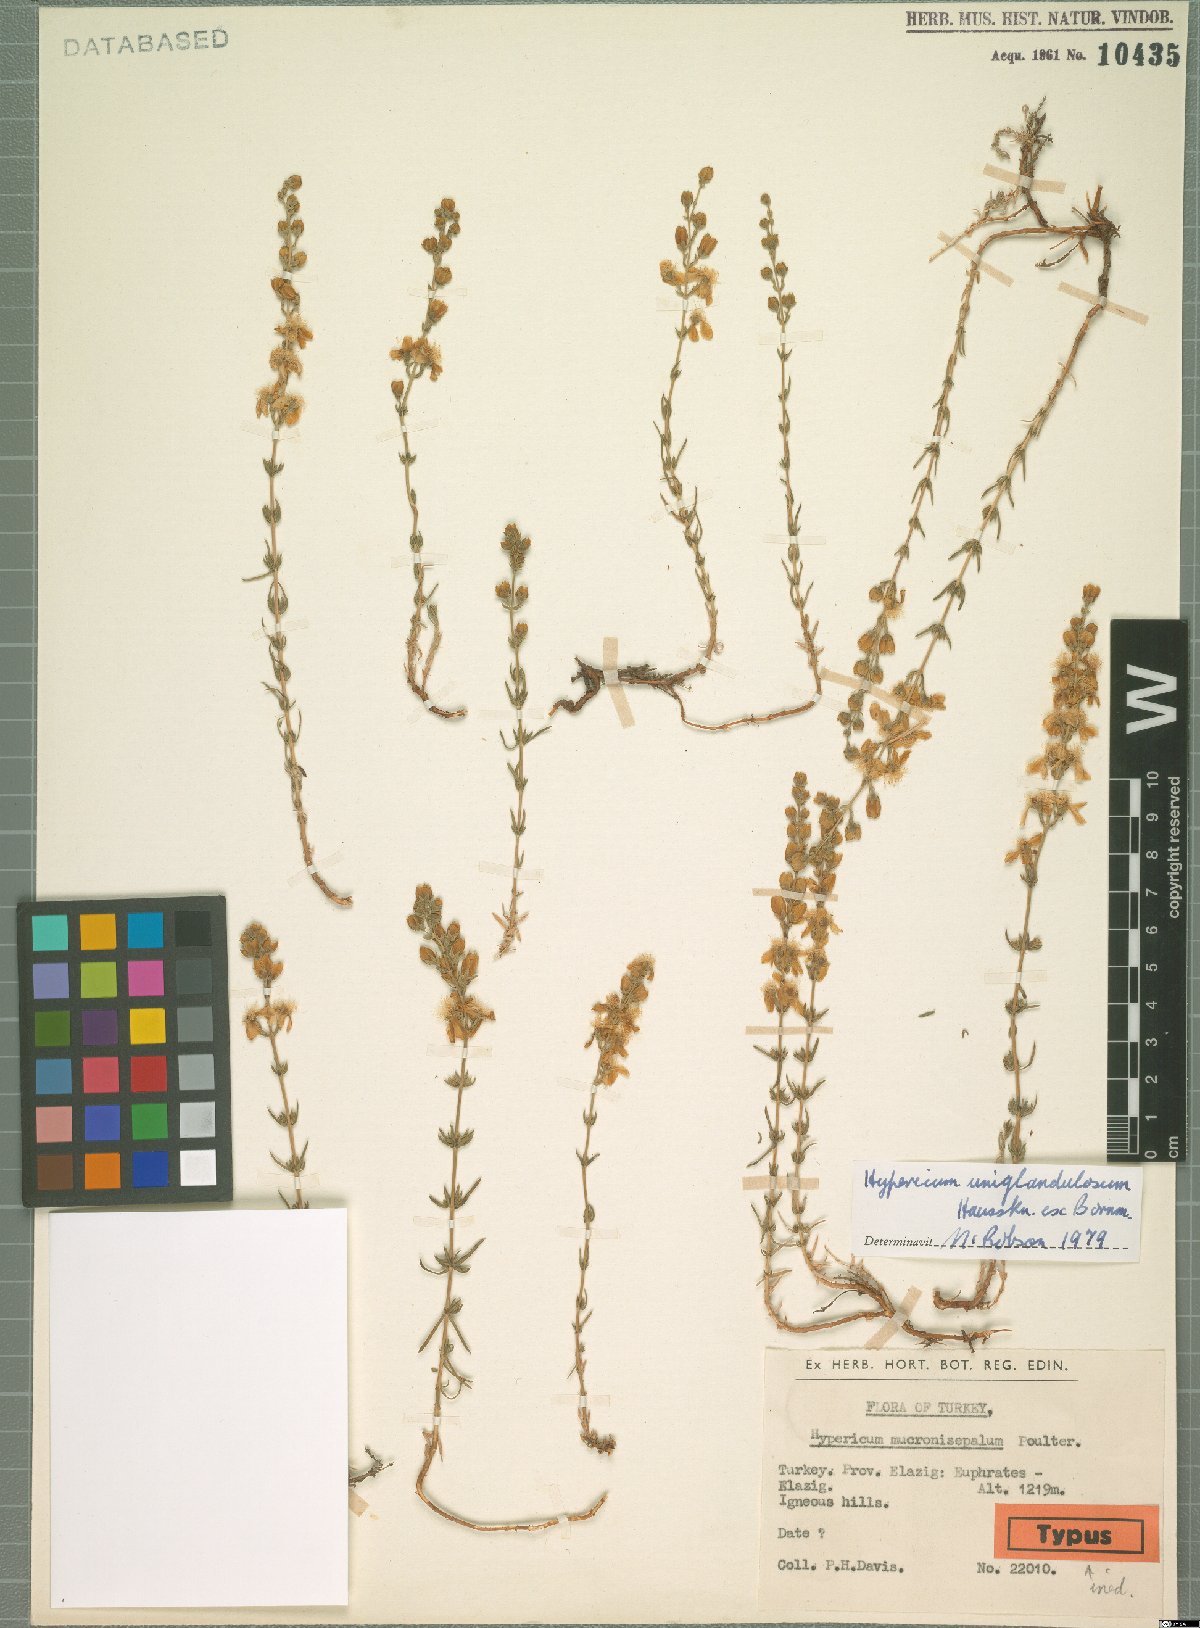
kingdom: Plantae
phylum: Tracheophyta
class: Magnoliopsida
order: Malpighiales
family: Hypericaceae
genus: Hypericum
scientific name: Hypericum uniglandulosum
